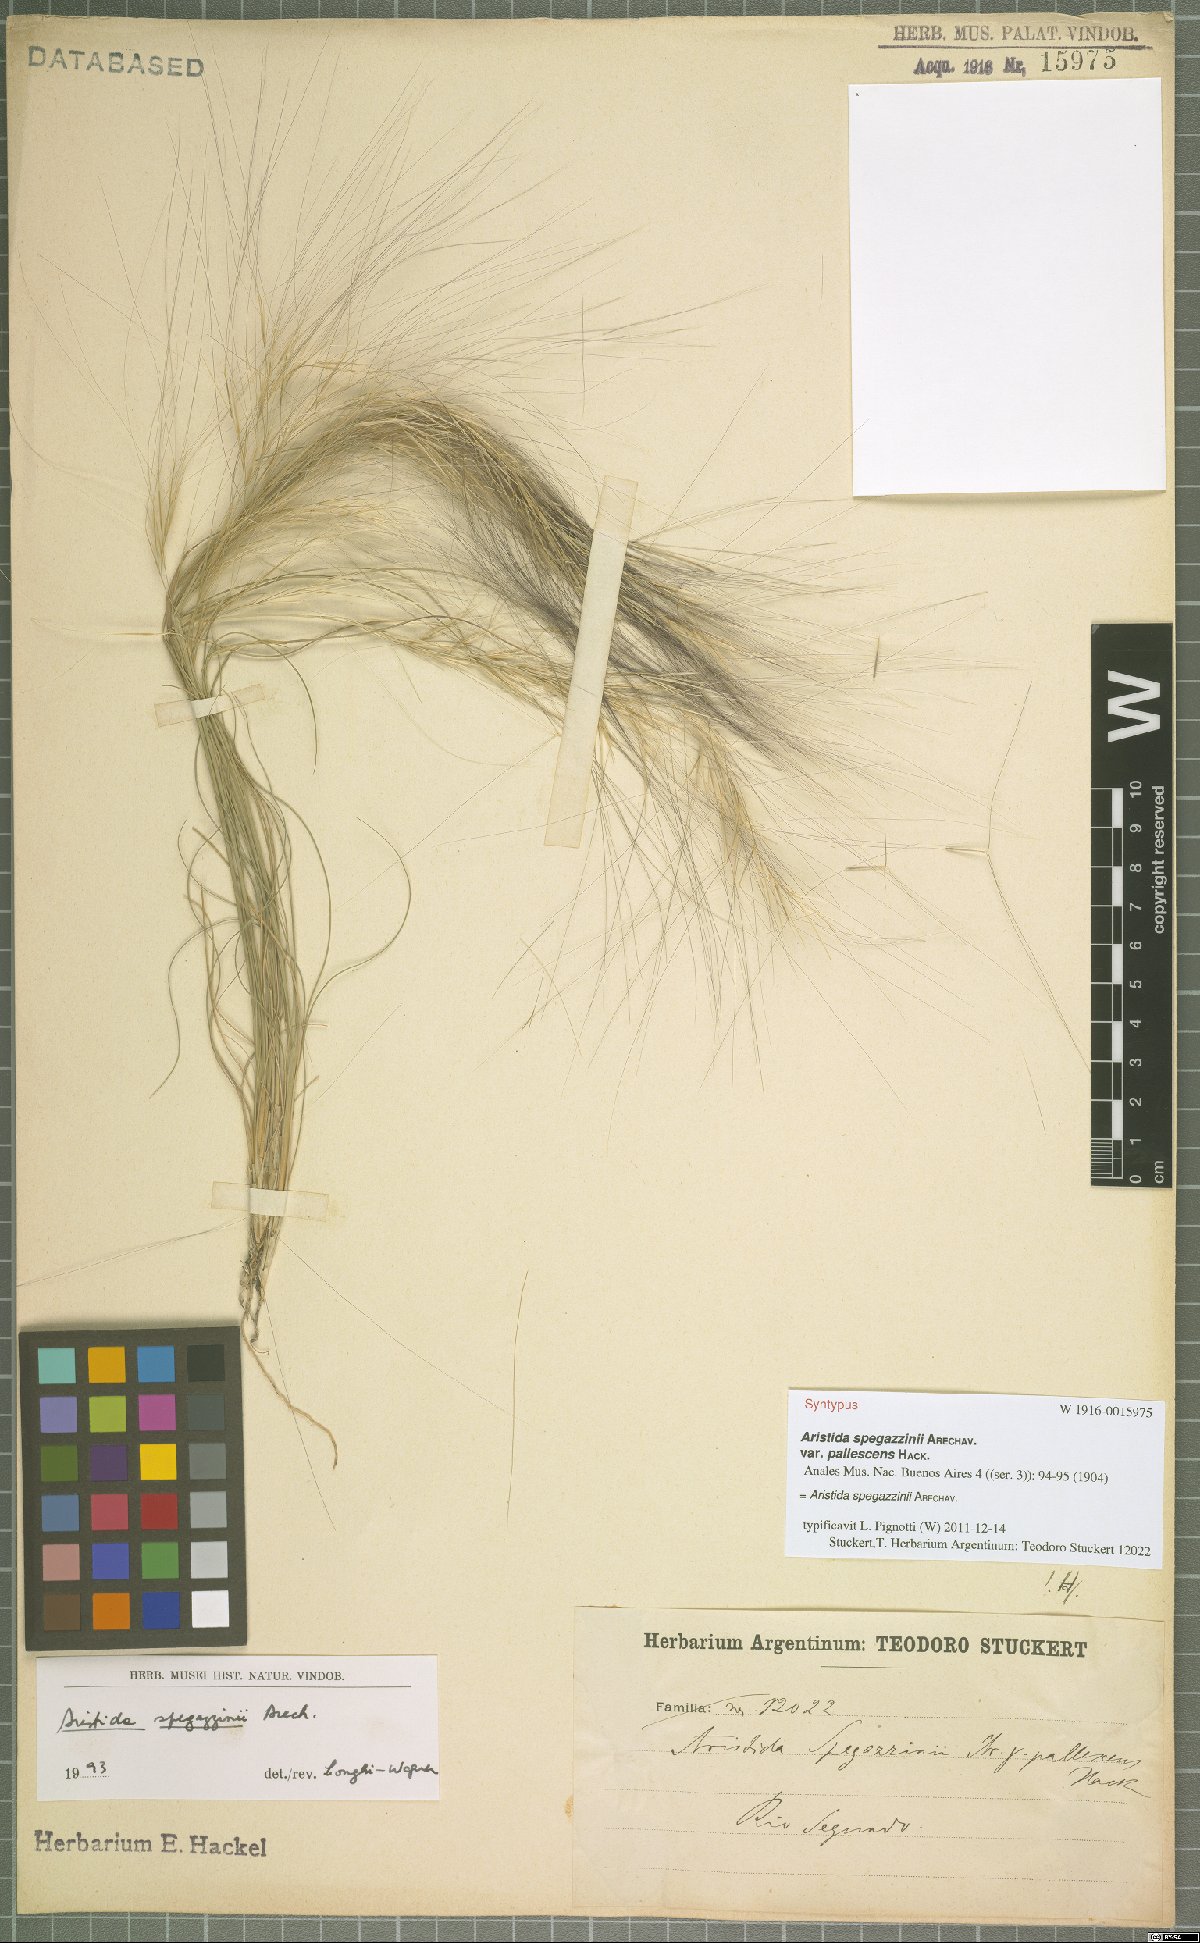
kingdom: Plantae
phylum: Tracheophyta
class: Liliopsida
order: Poales
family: Poaceae
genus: Aristida
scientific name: Aristida spegazzinii
